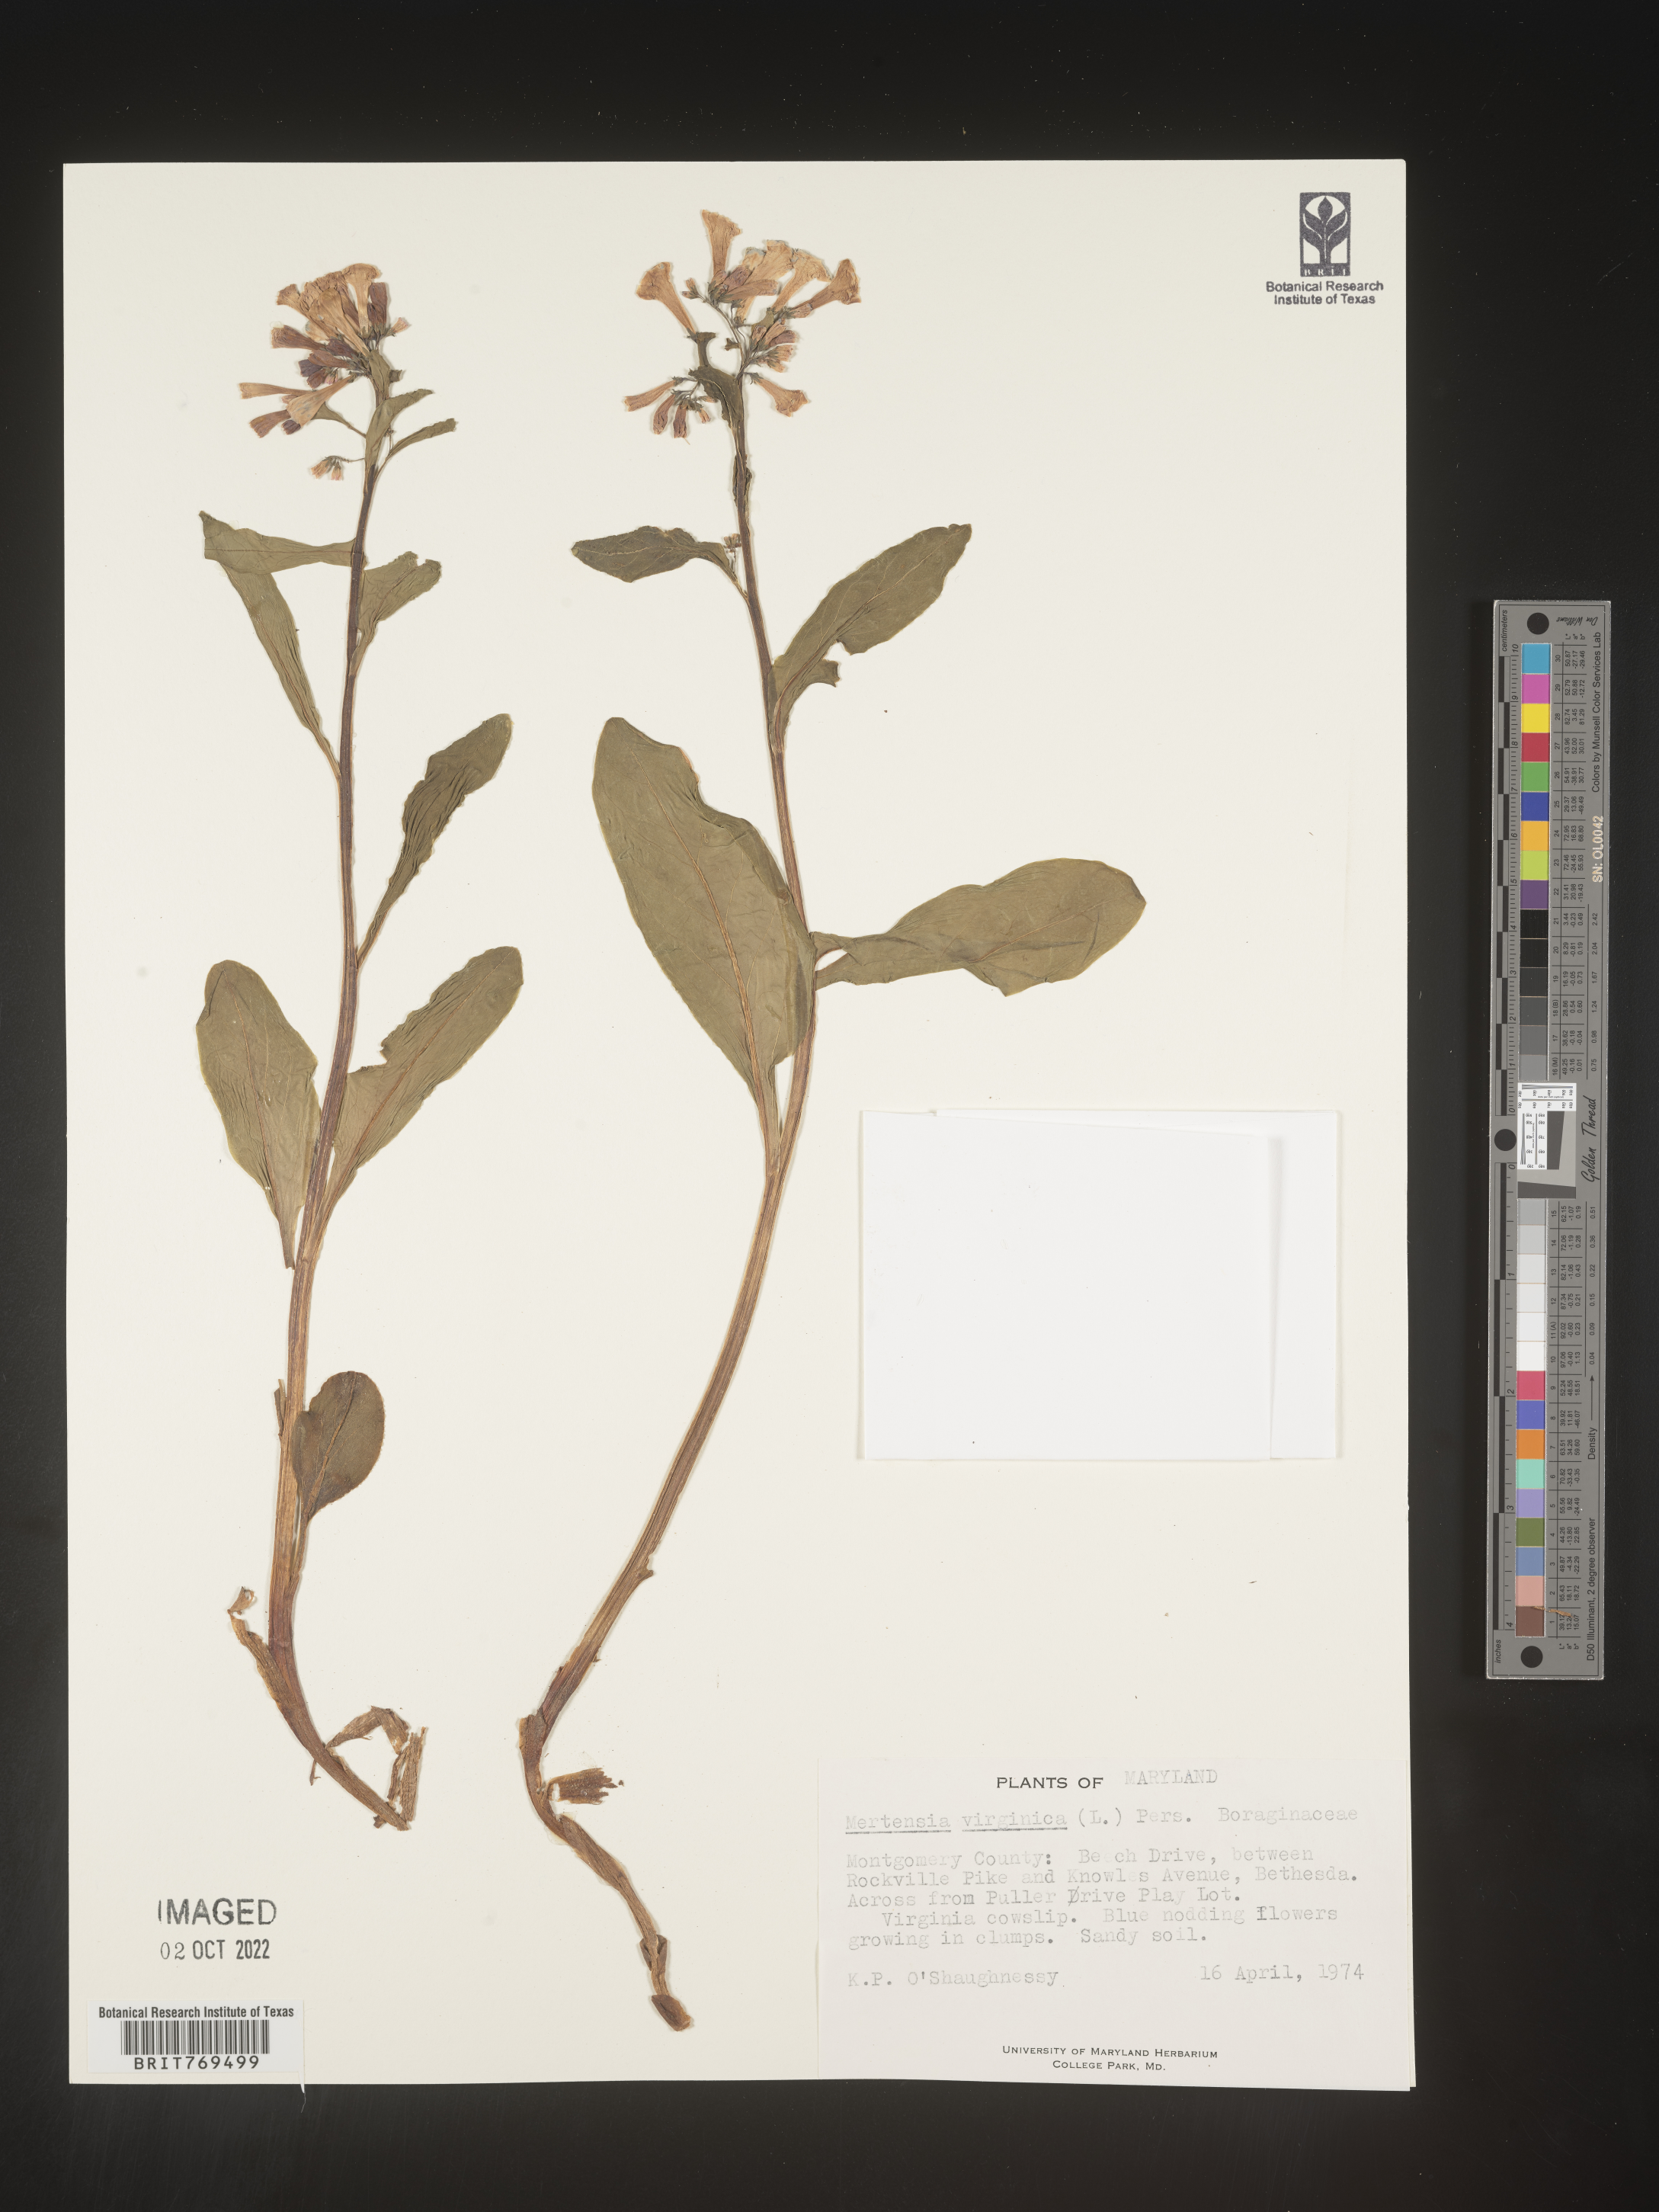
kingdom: Plantae
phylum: Tracheophyta
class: Magnoliopsida
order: Boraginales
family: Boraginaceae
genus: Mertensia
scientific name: Mertensia virginica
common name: Virginia bluebells
